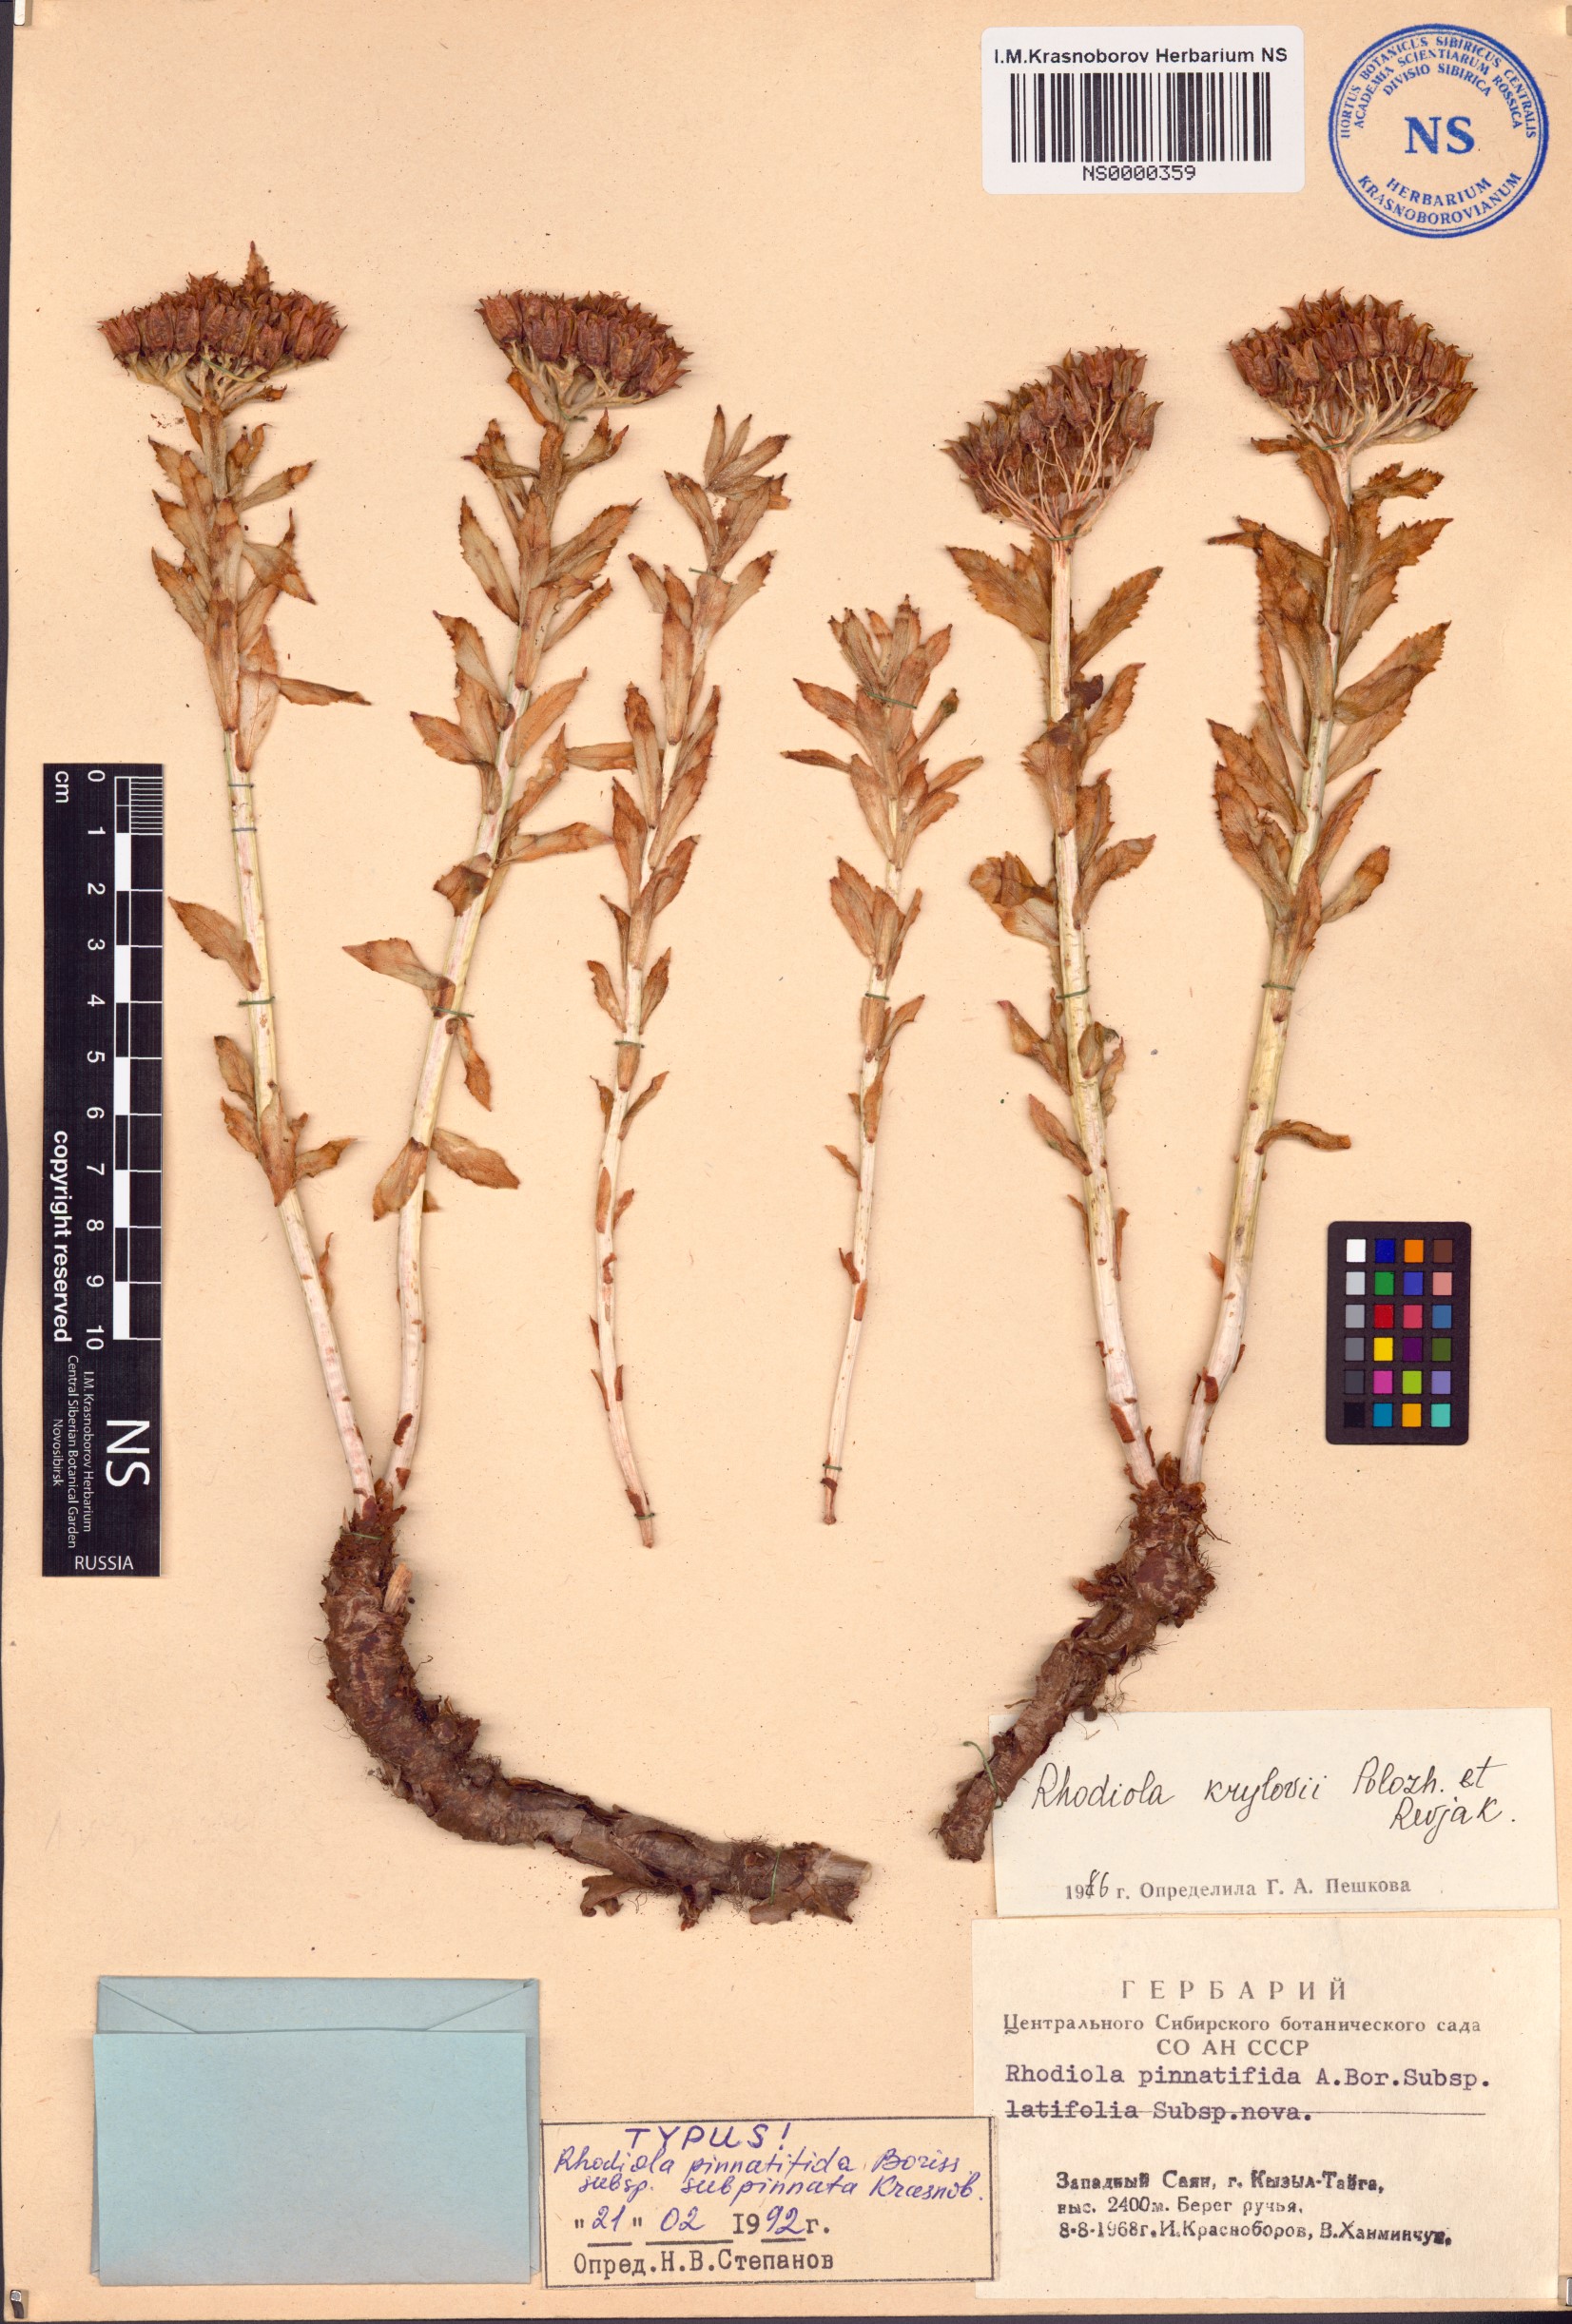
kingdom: Plantae
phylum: Tracheophyta
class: Magnoliopsida
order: Saxifragales
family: Crassulaceae
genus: Rhodiola
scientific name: Rhodiola stephani
